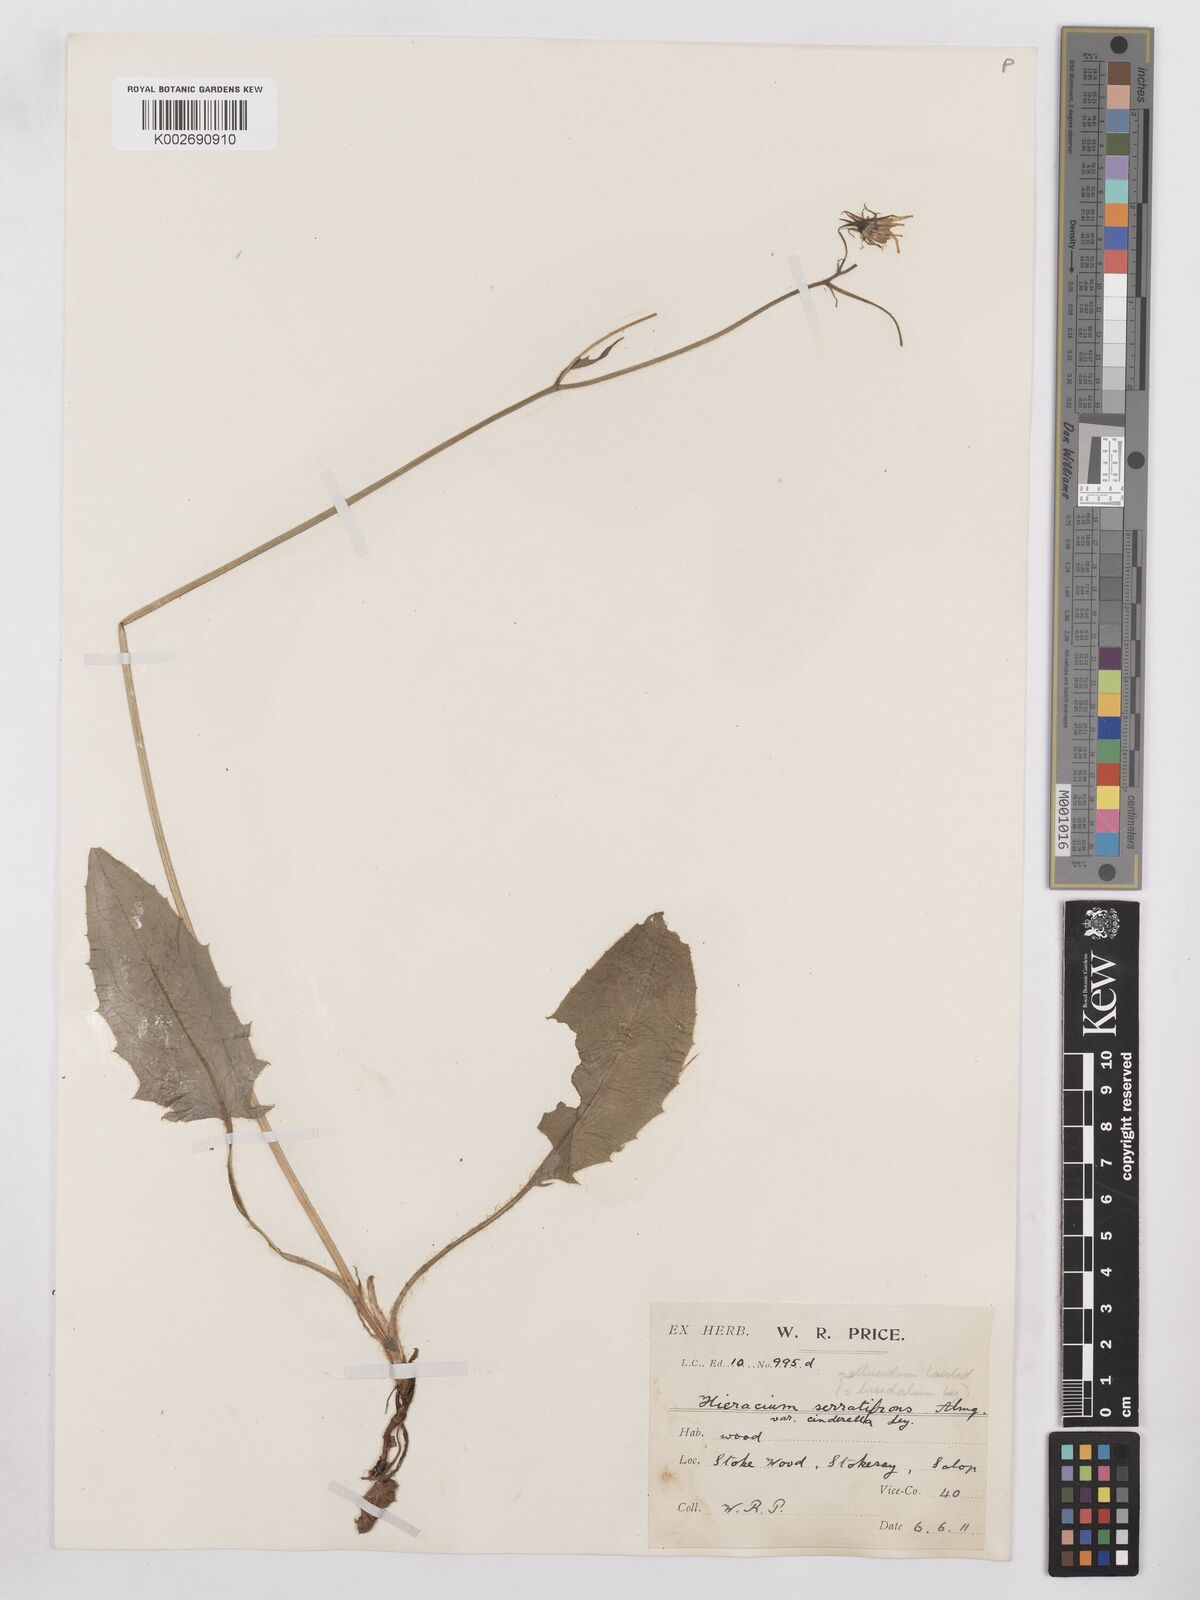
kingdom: Plantae
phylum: Tracheophyta
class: Magnoliopsida
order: Asterales
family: Asteraceae
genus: Hieracium
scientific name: Hieracium murorum
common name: Wall hawkweed
